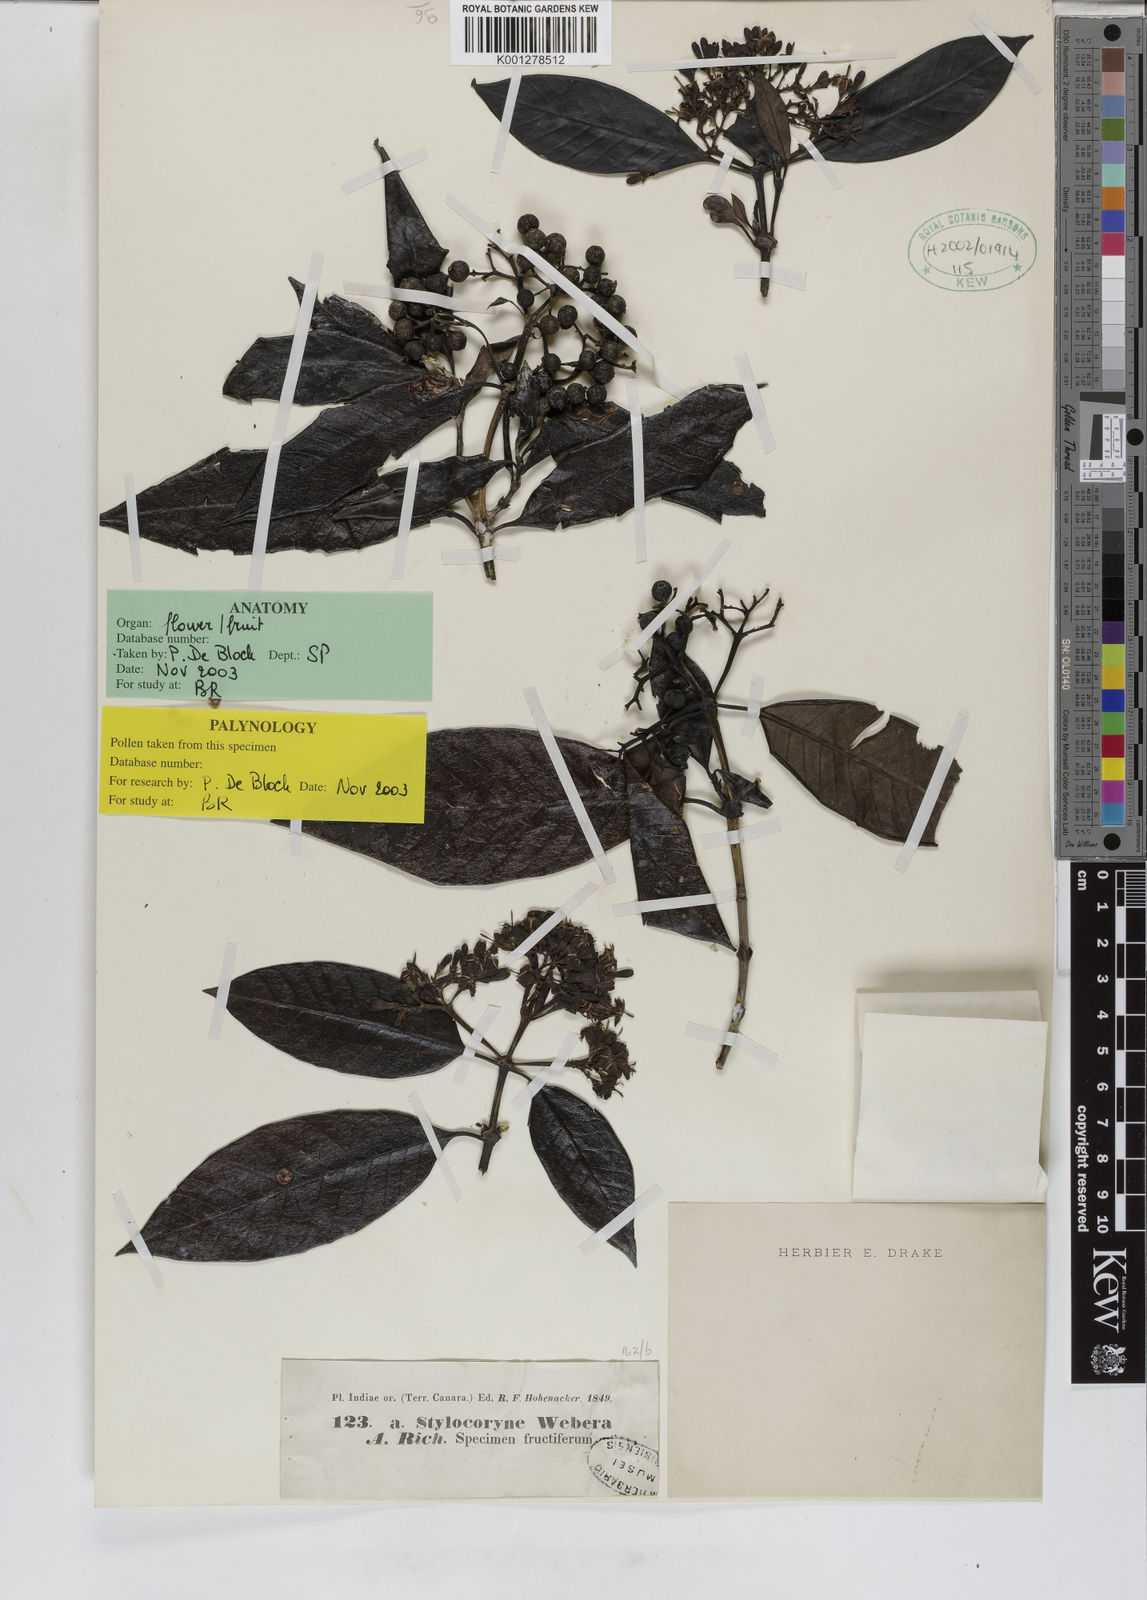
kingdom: Plantae
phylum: Tracheophyta
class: Magnoliopsida
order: Gentianales
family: Rubiaceae
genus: Tarenna
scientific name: Tarenna asiatica
